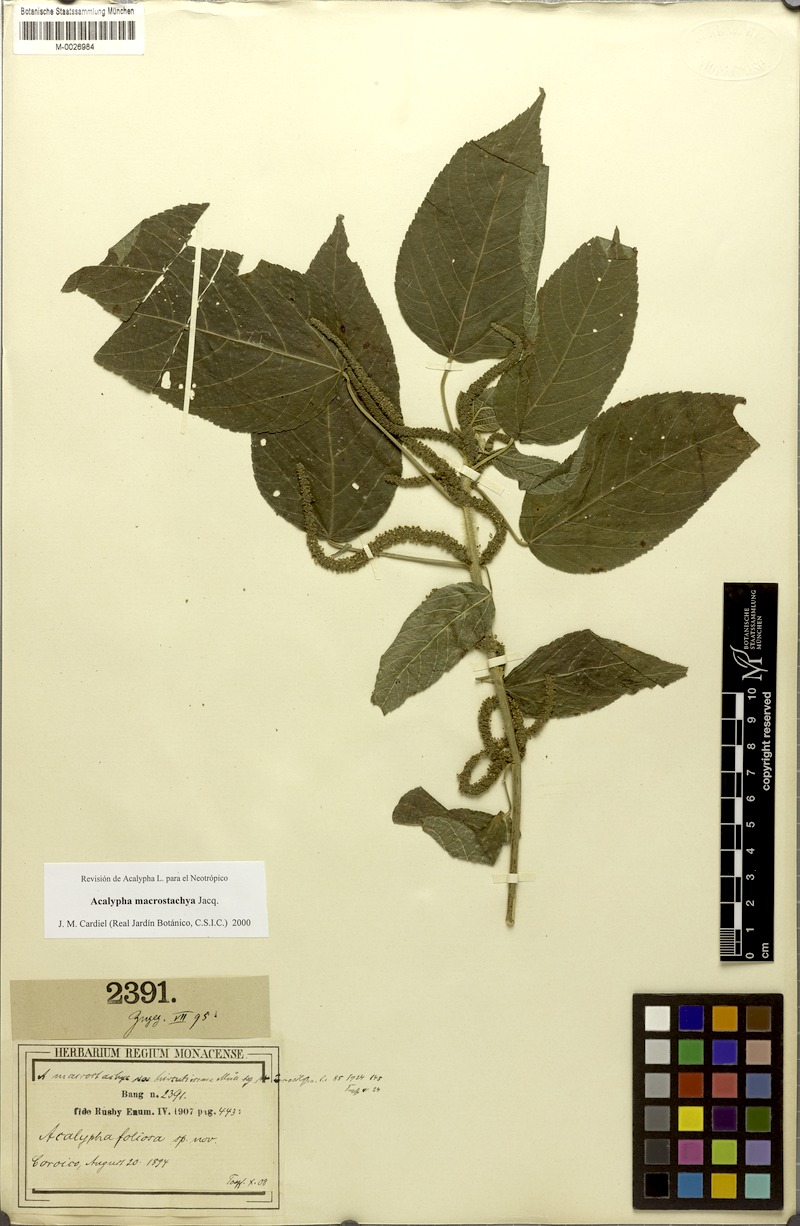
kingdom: Plantae
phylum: Tracheophyta
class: Magnoliopsida
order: Malpighiales
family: Euphorbiaceae
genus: Acalypha
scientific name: Acalypha macrostachya
